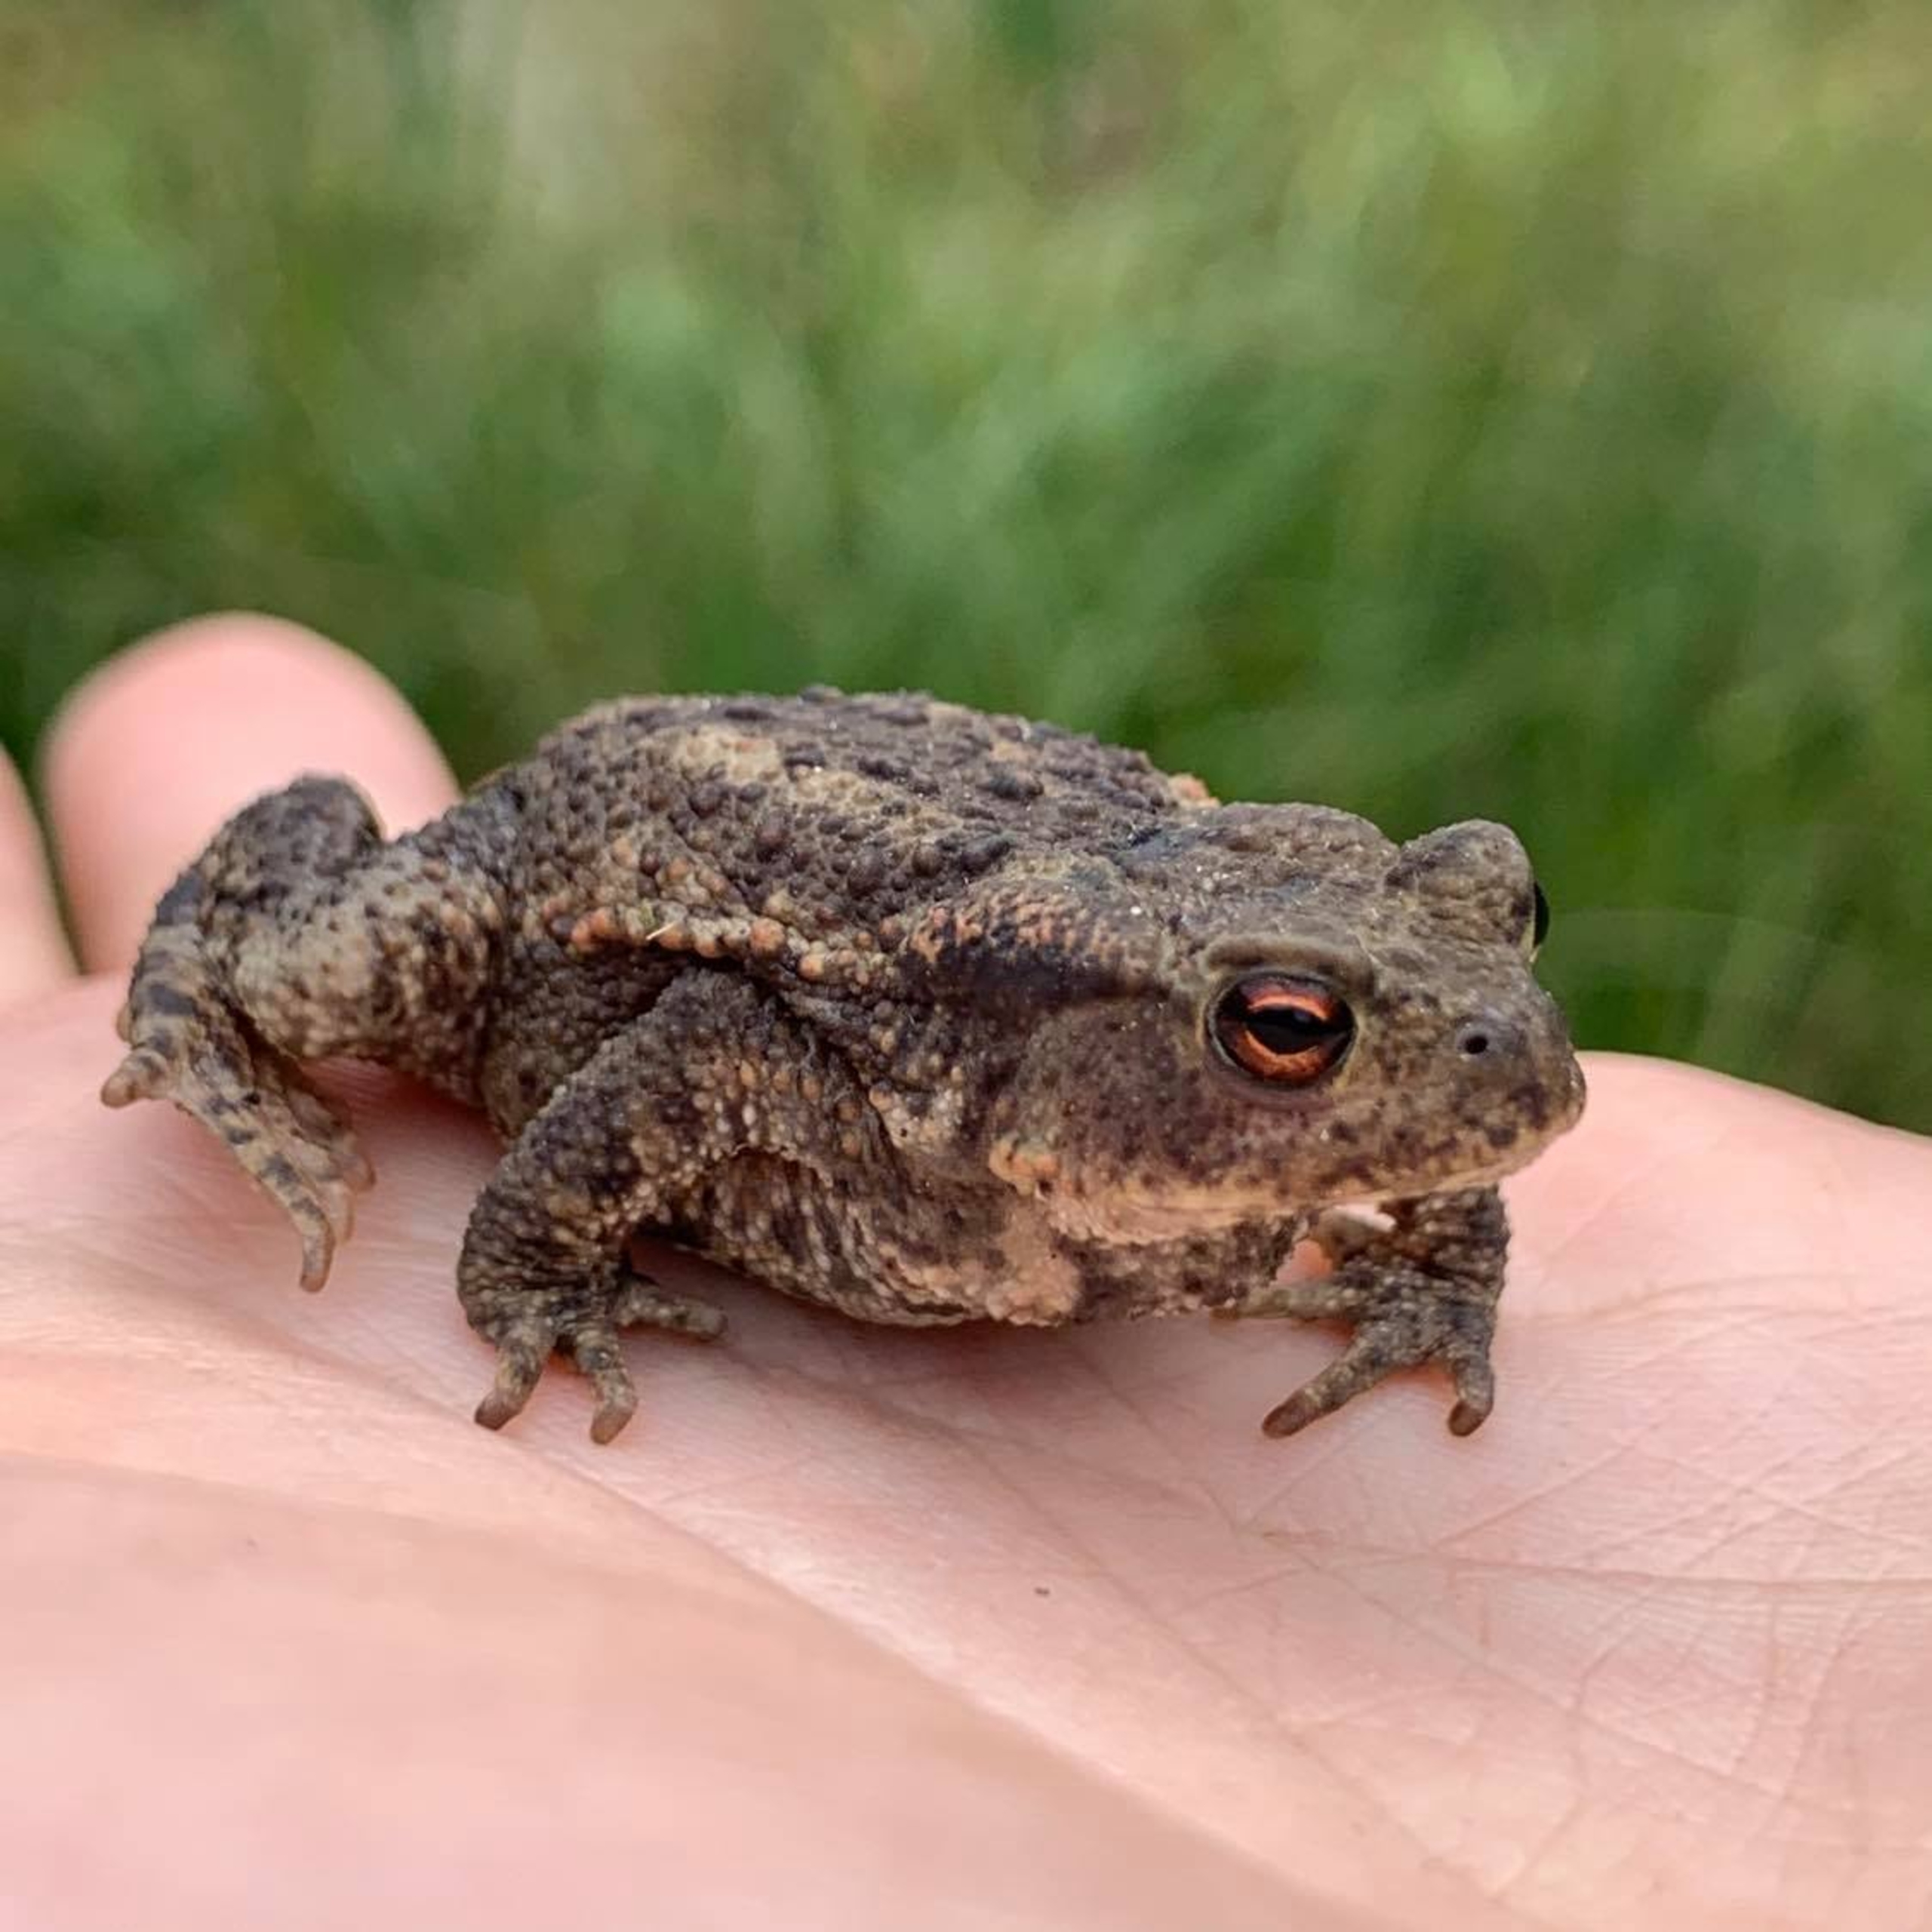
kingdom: Animalia
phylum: Chordata
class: Amphibia
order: Anura
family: Bufonidae
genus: Bufo
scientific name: Bufo bufo
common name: Skrubtudse
